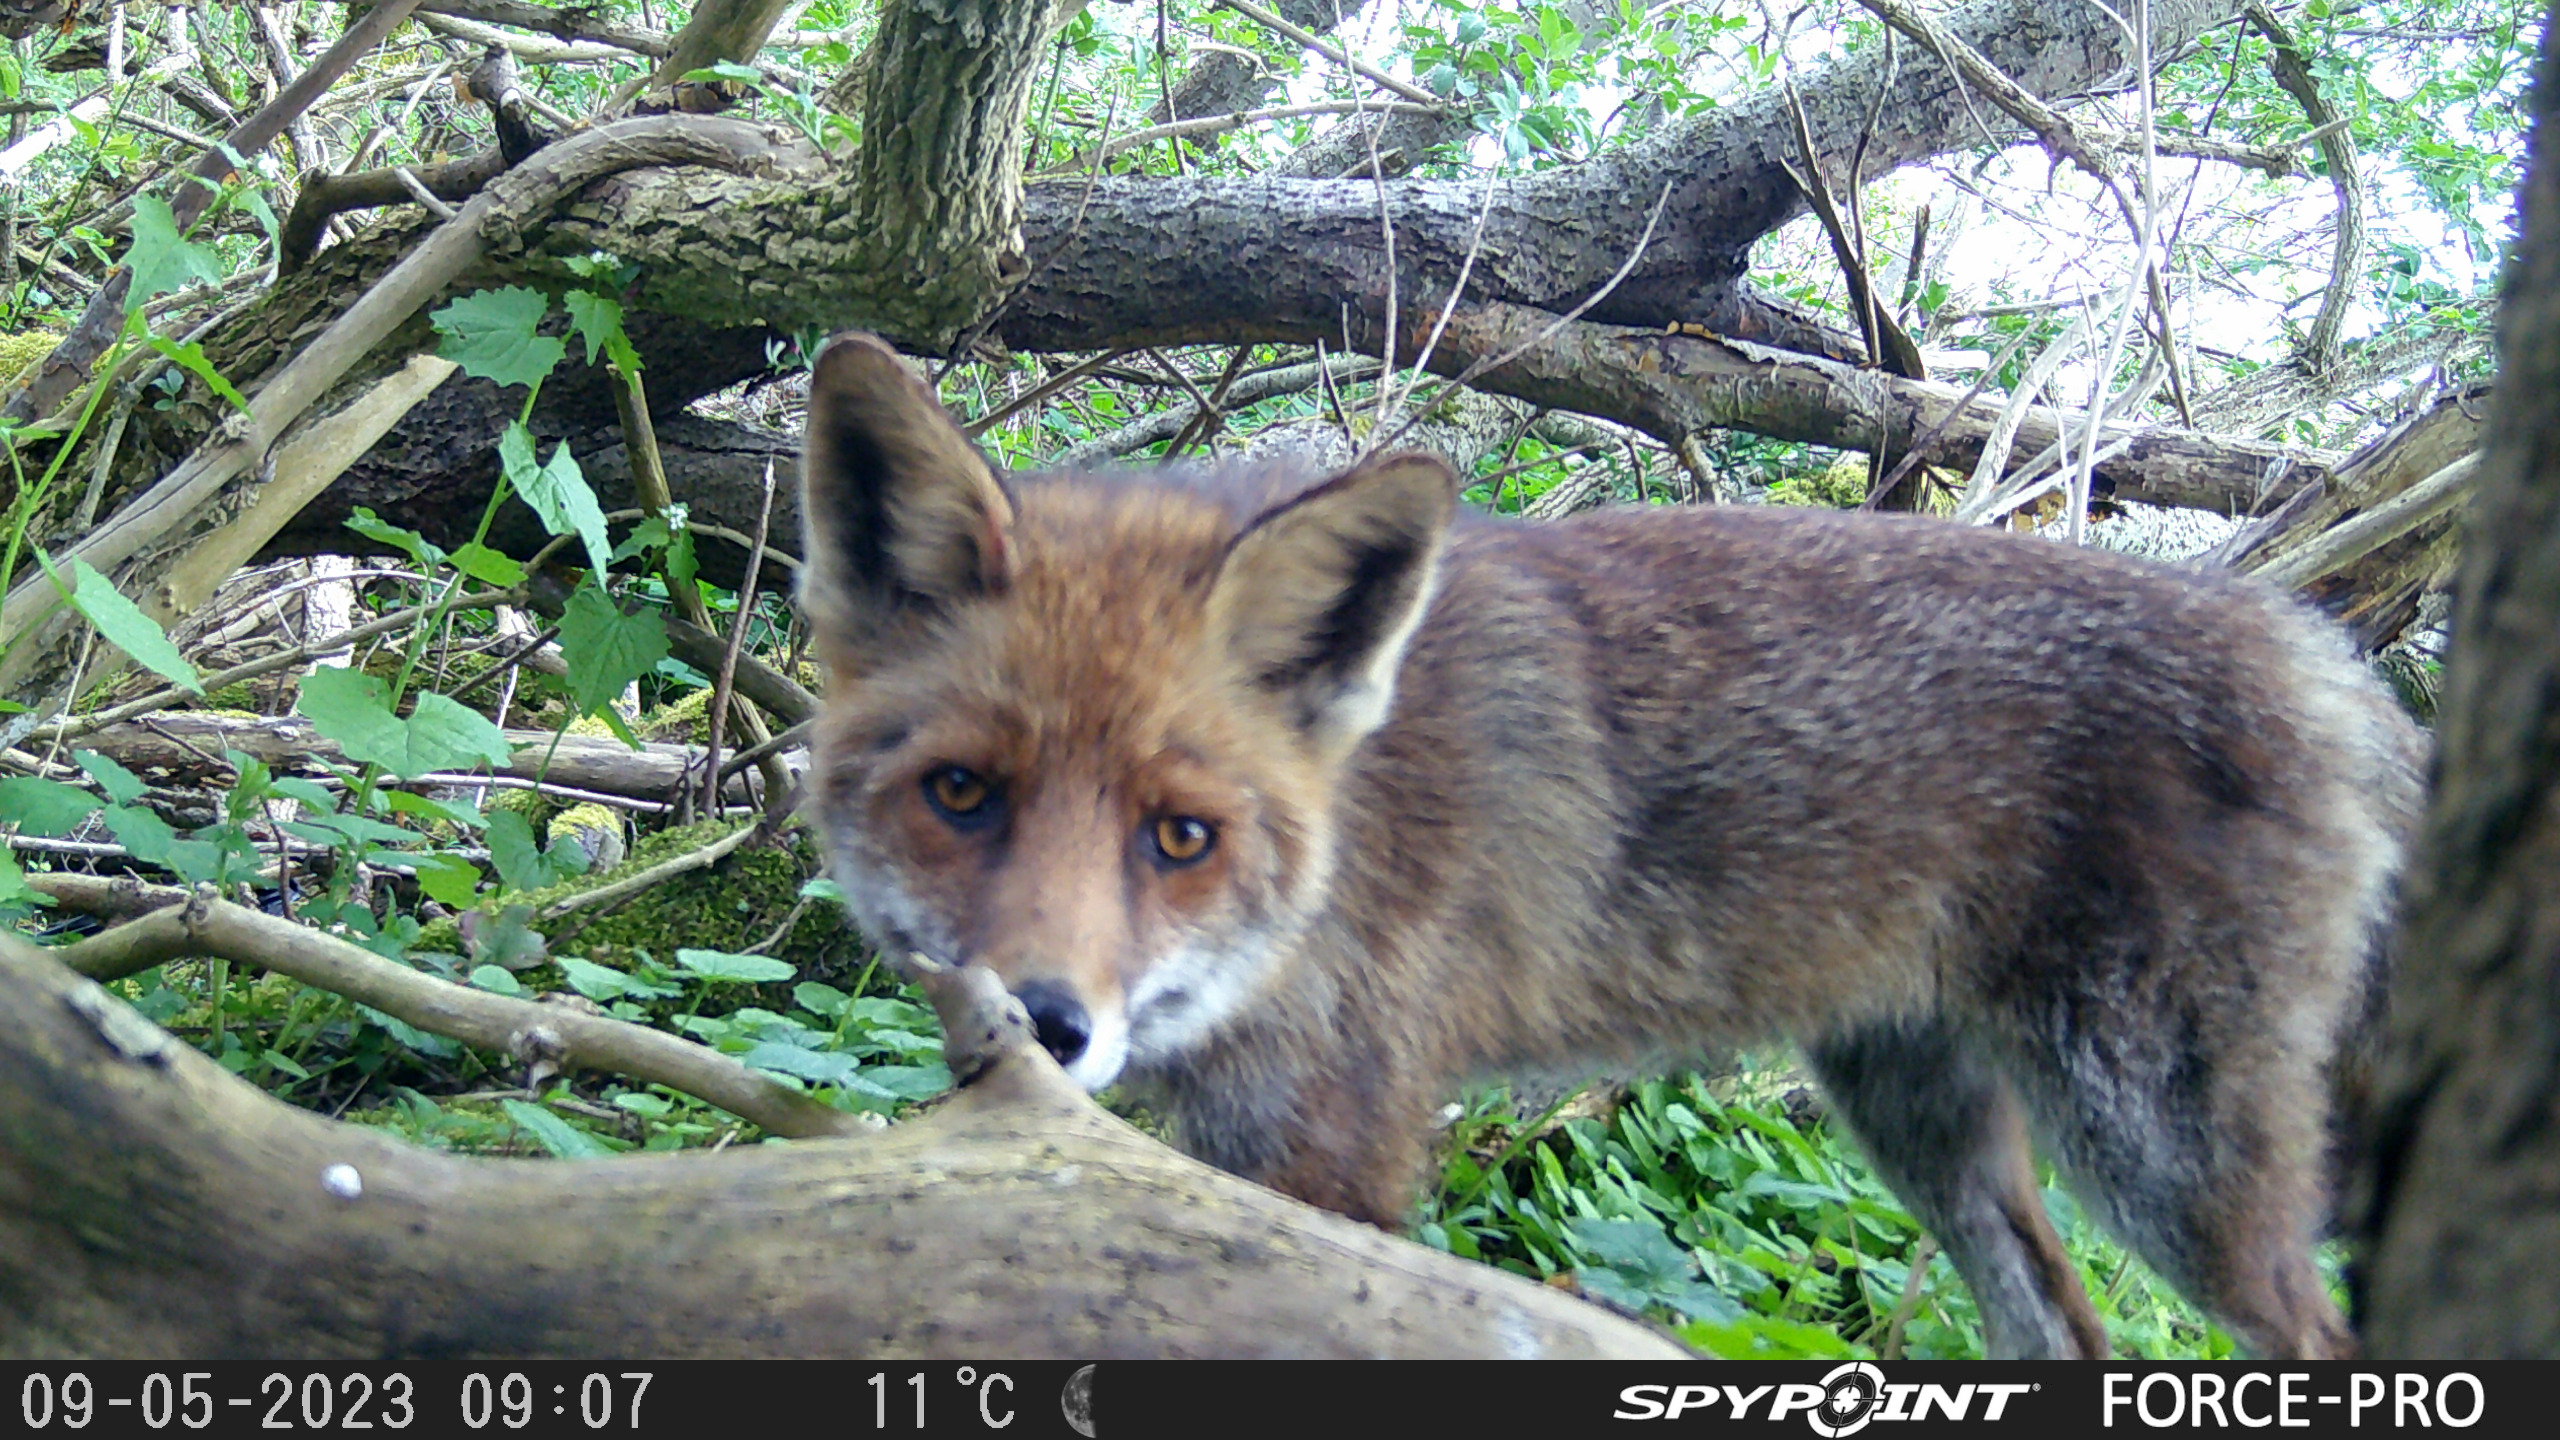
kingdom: Animalia
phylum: Chordata
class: Mammalia
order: Carnivora
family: Canidae
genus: Vulpes
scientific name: Vulpes vulpes
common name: Ræv
